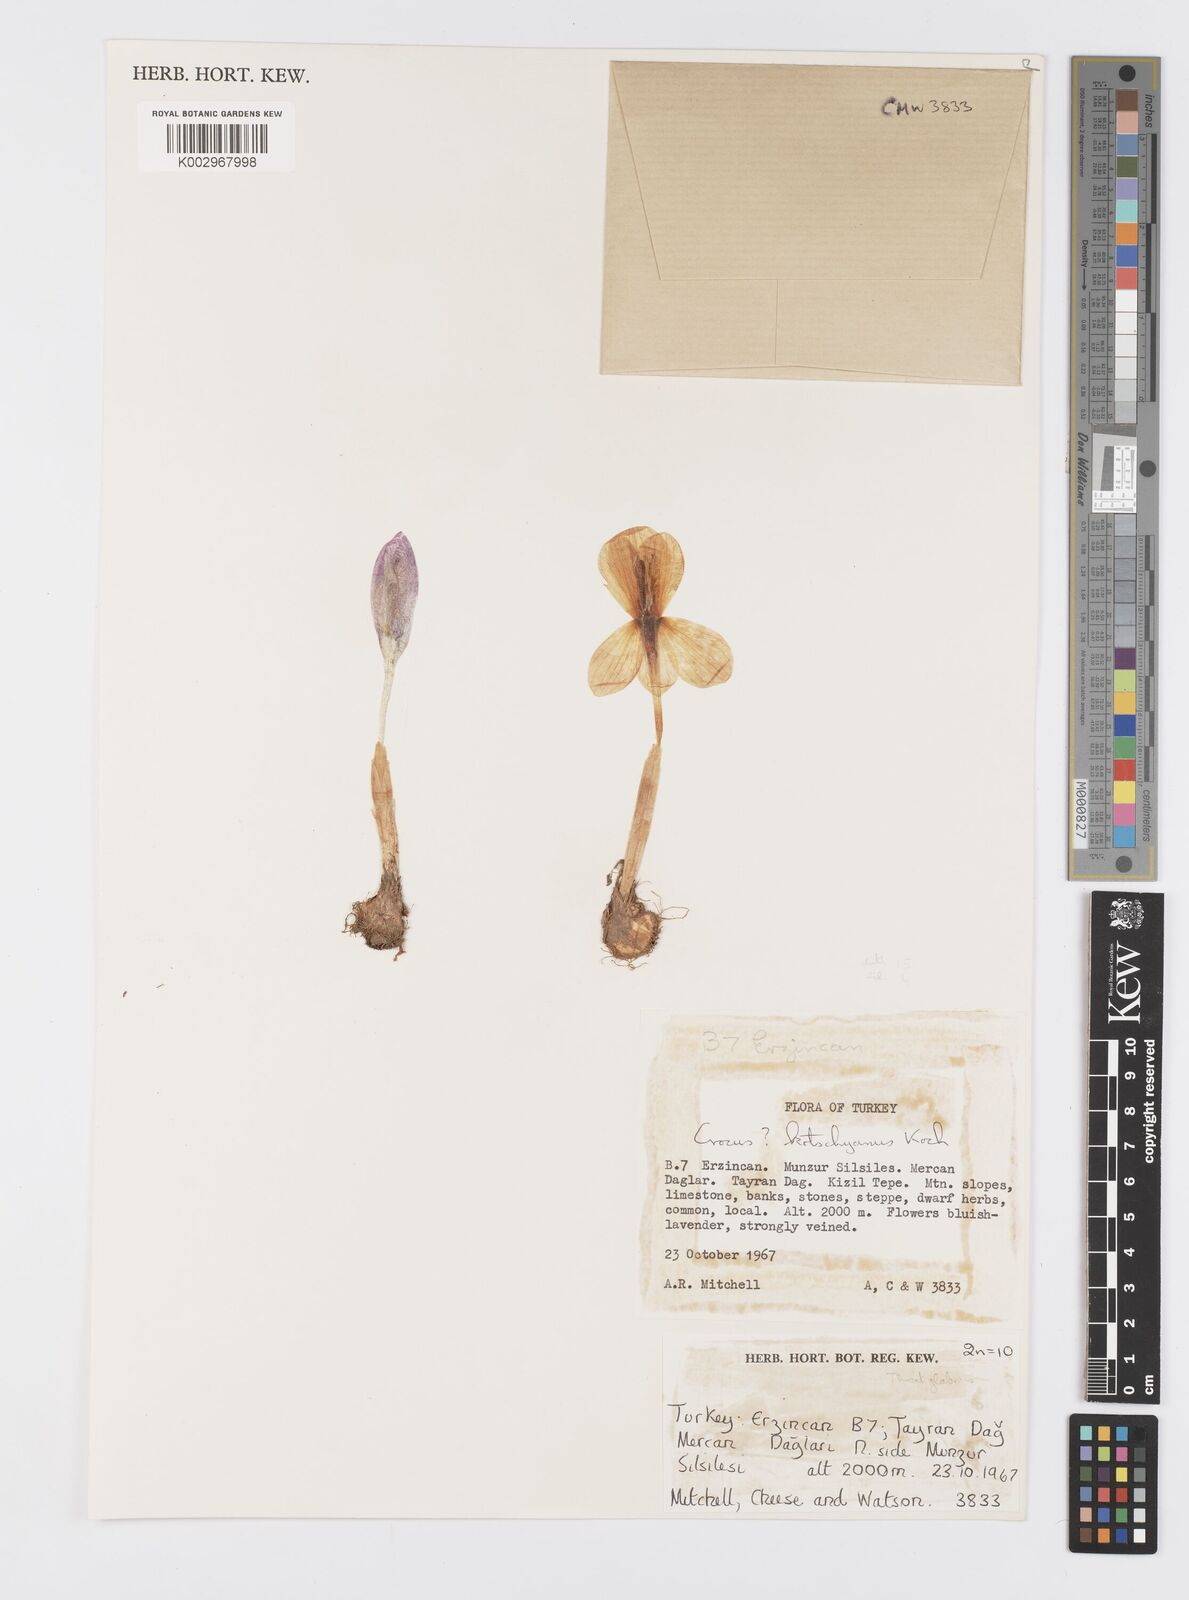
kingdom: Plantae
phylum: Tracheophyta
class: Liliopsida
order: Asparagales
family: Iridaceae
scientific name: Iridaceae
